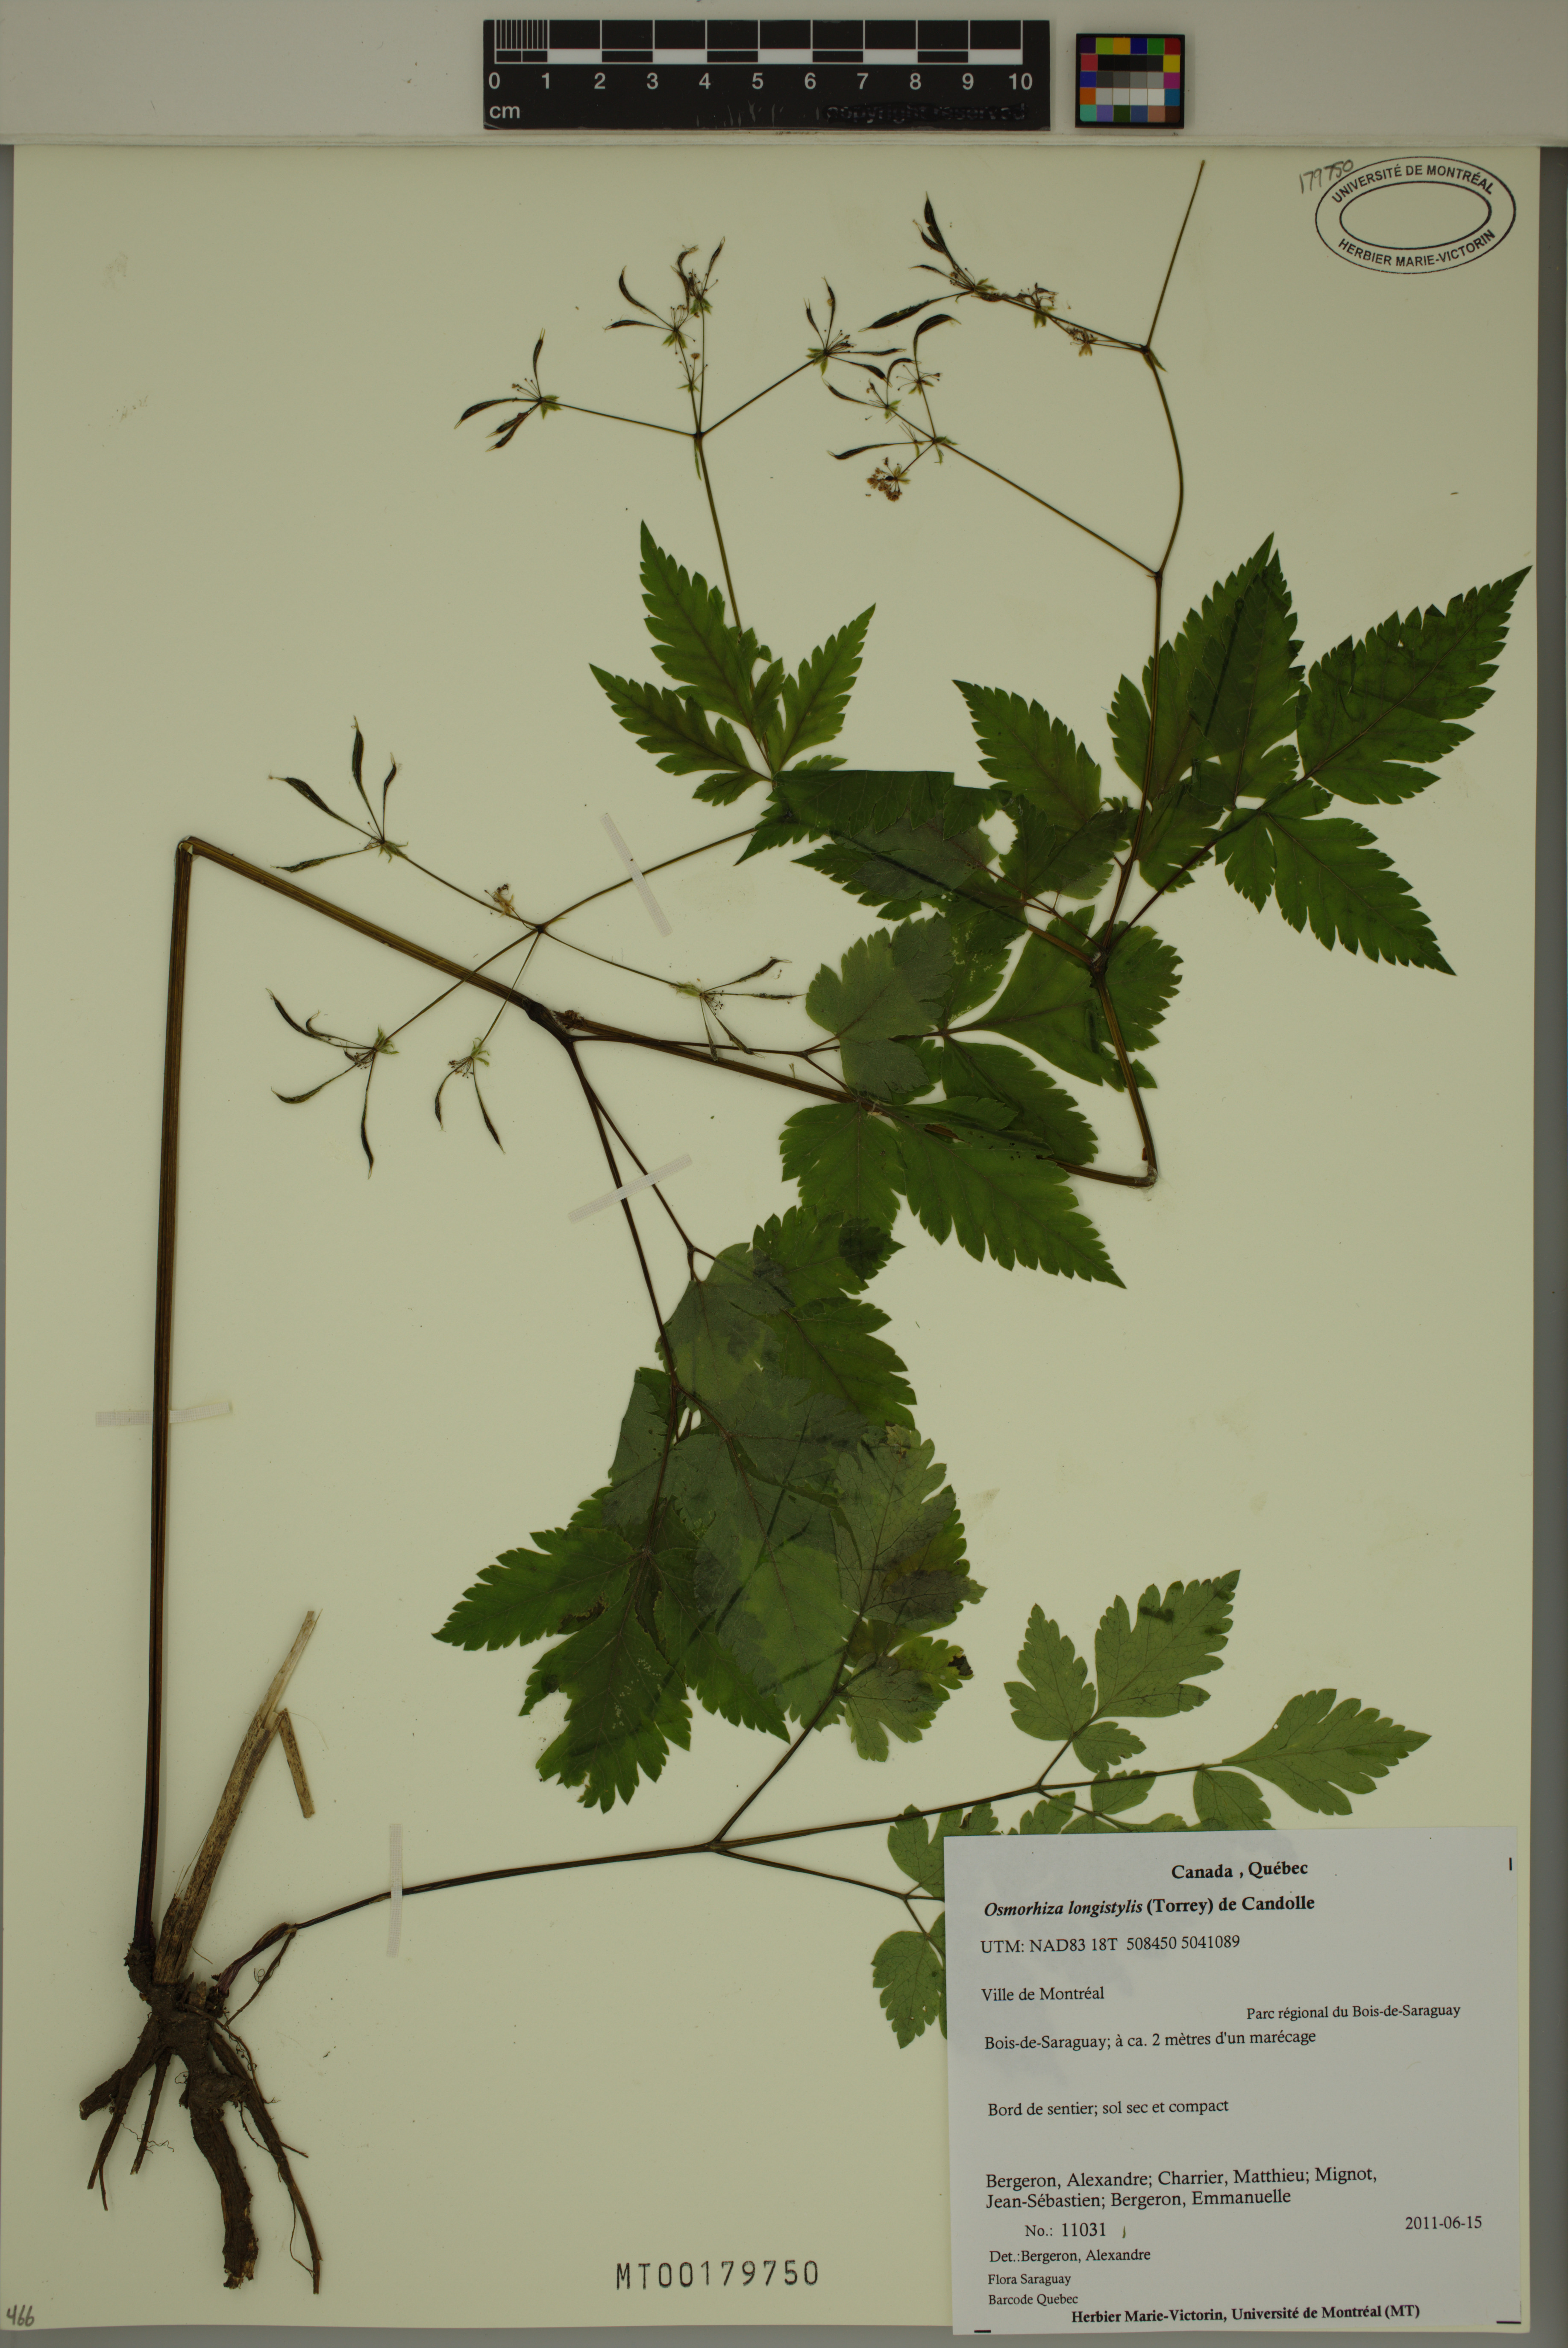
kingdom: Plantae
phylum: Tracheophyta
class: Magnoliopsida
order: Apiales
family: Apiaceae
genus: Osmorhiza
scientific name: Osmorhiza longistylis
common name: Smooth sweet cicely
